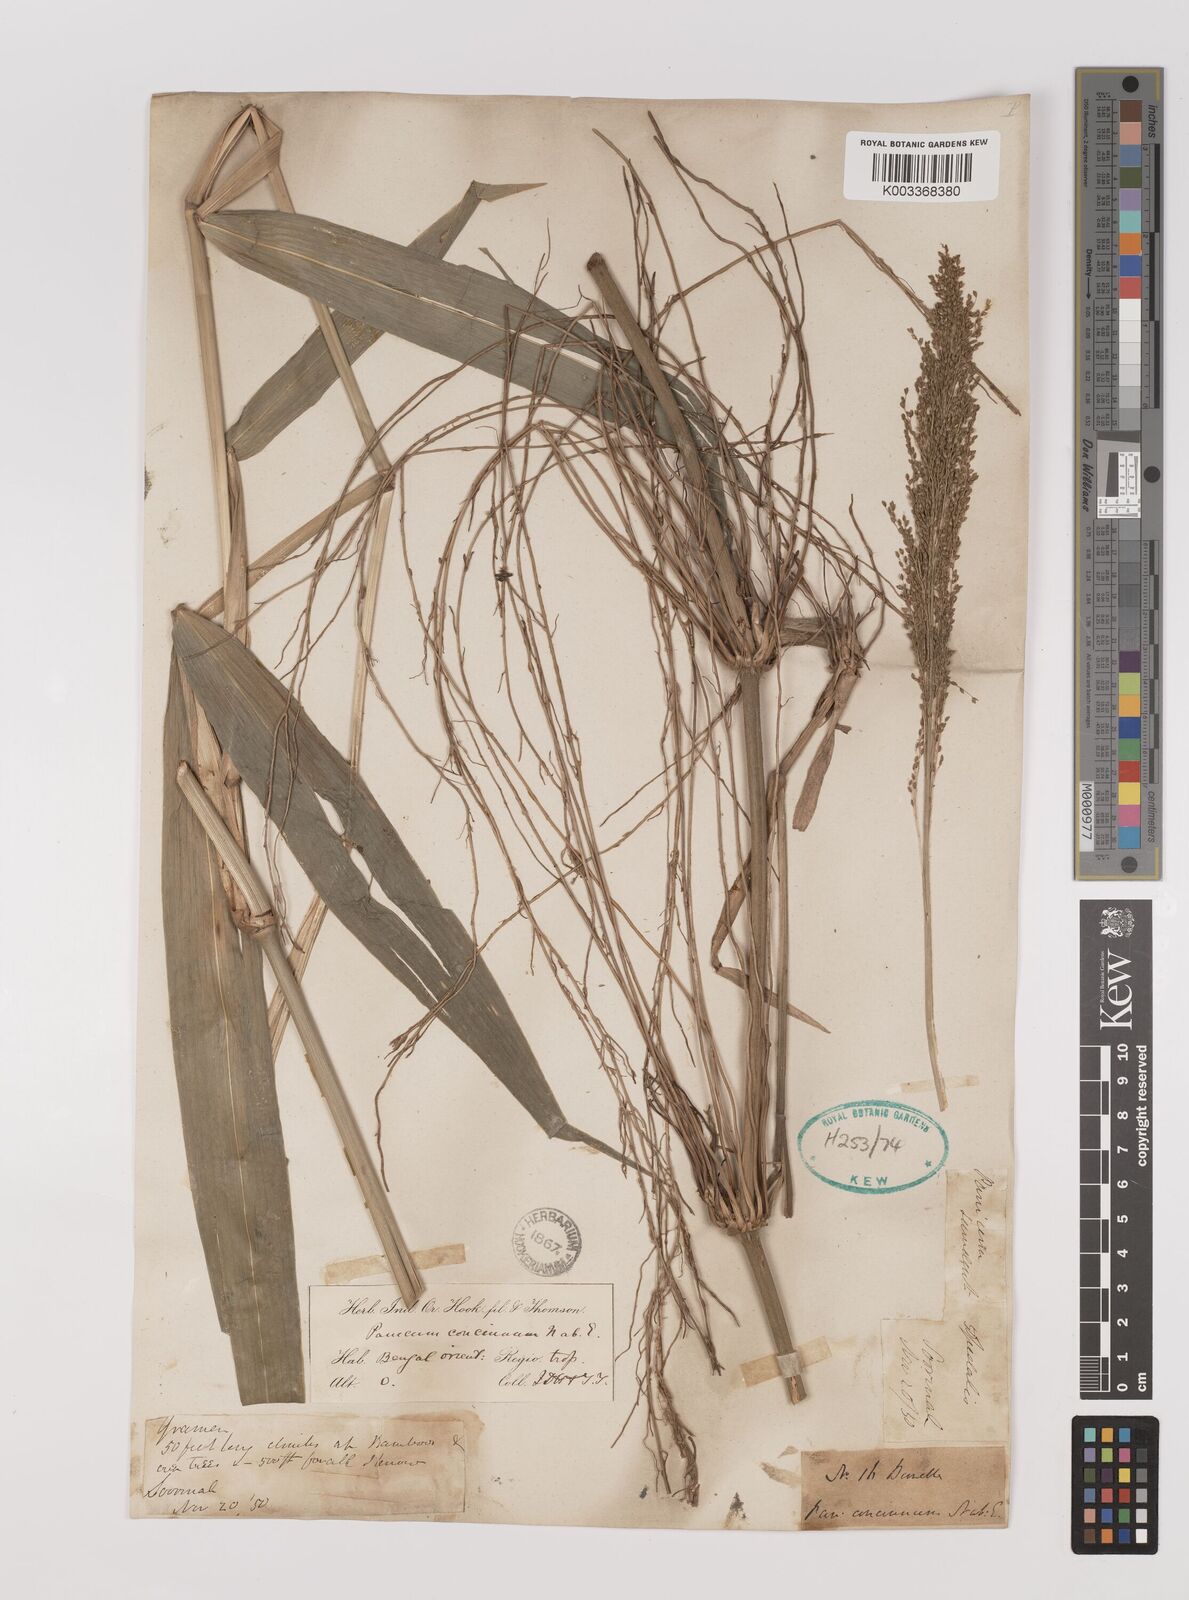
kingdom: Plantae
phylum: Tracheophyta
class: Liliopsida
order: Poales
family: Poaceae
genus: Panicum
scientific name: Panicum sarmentosum
